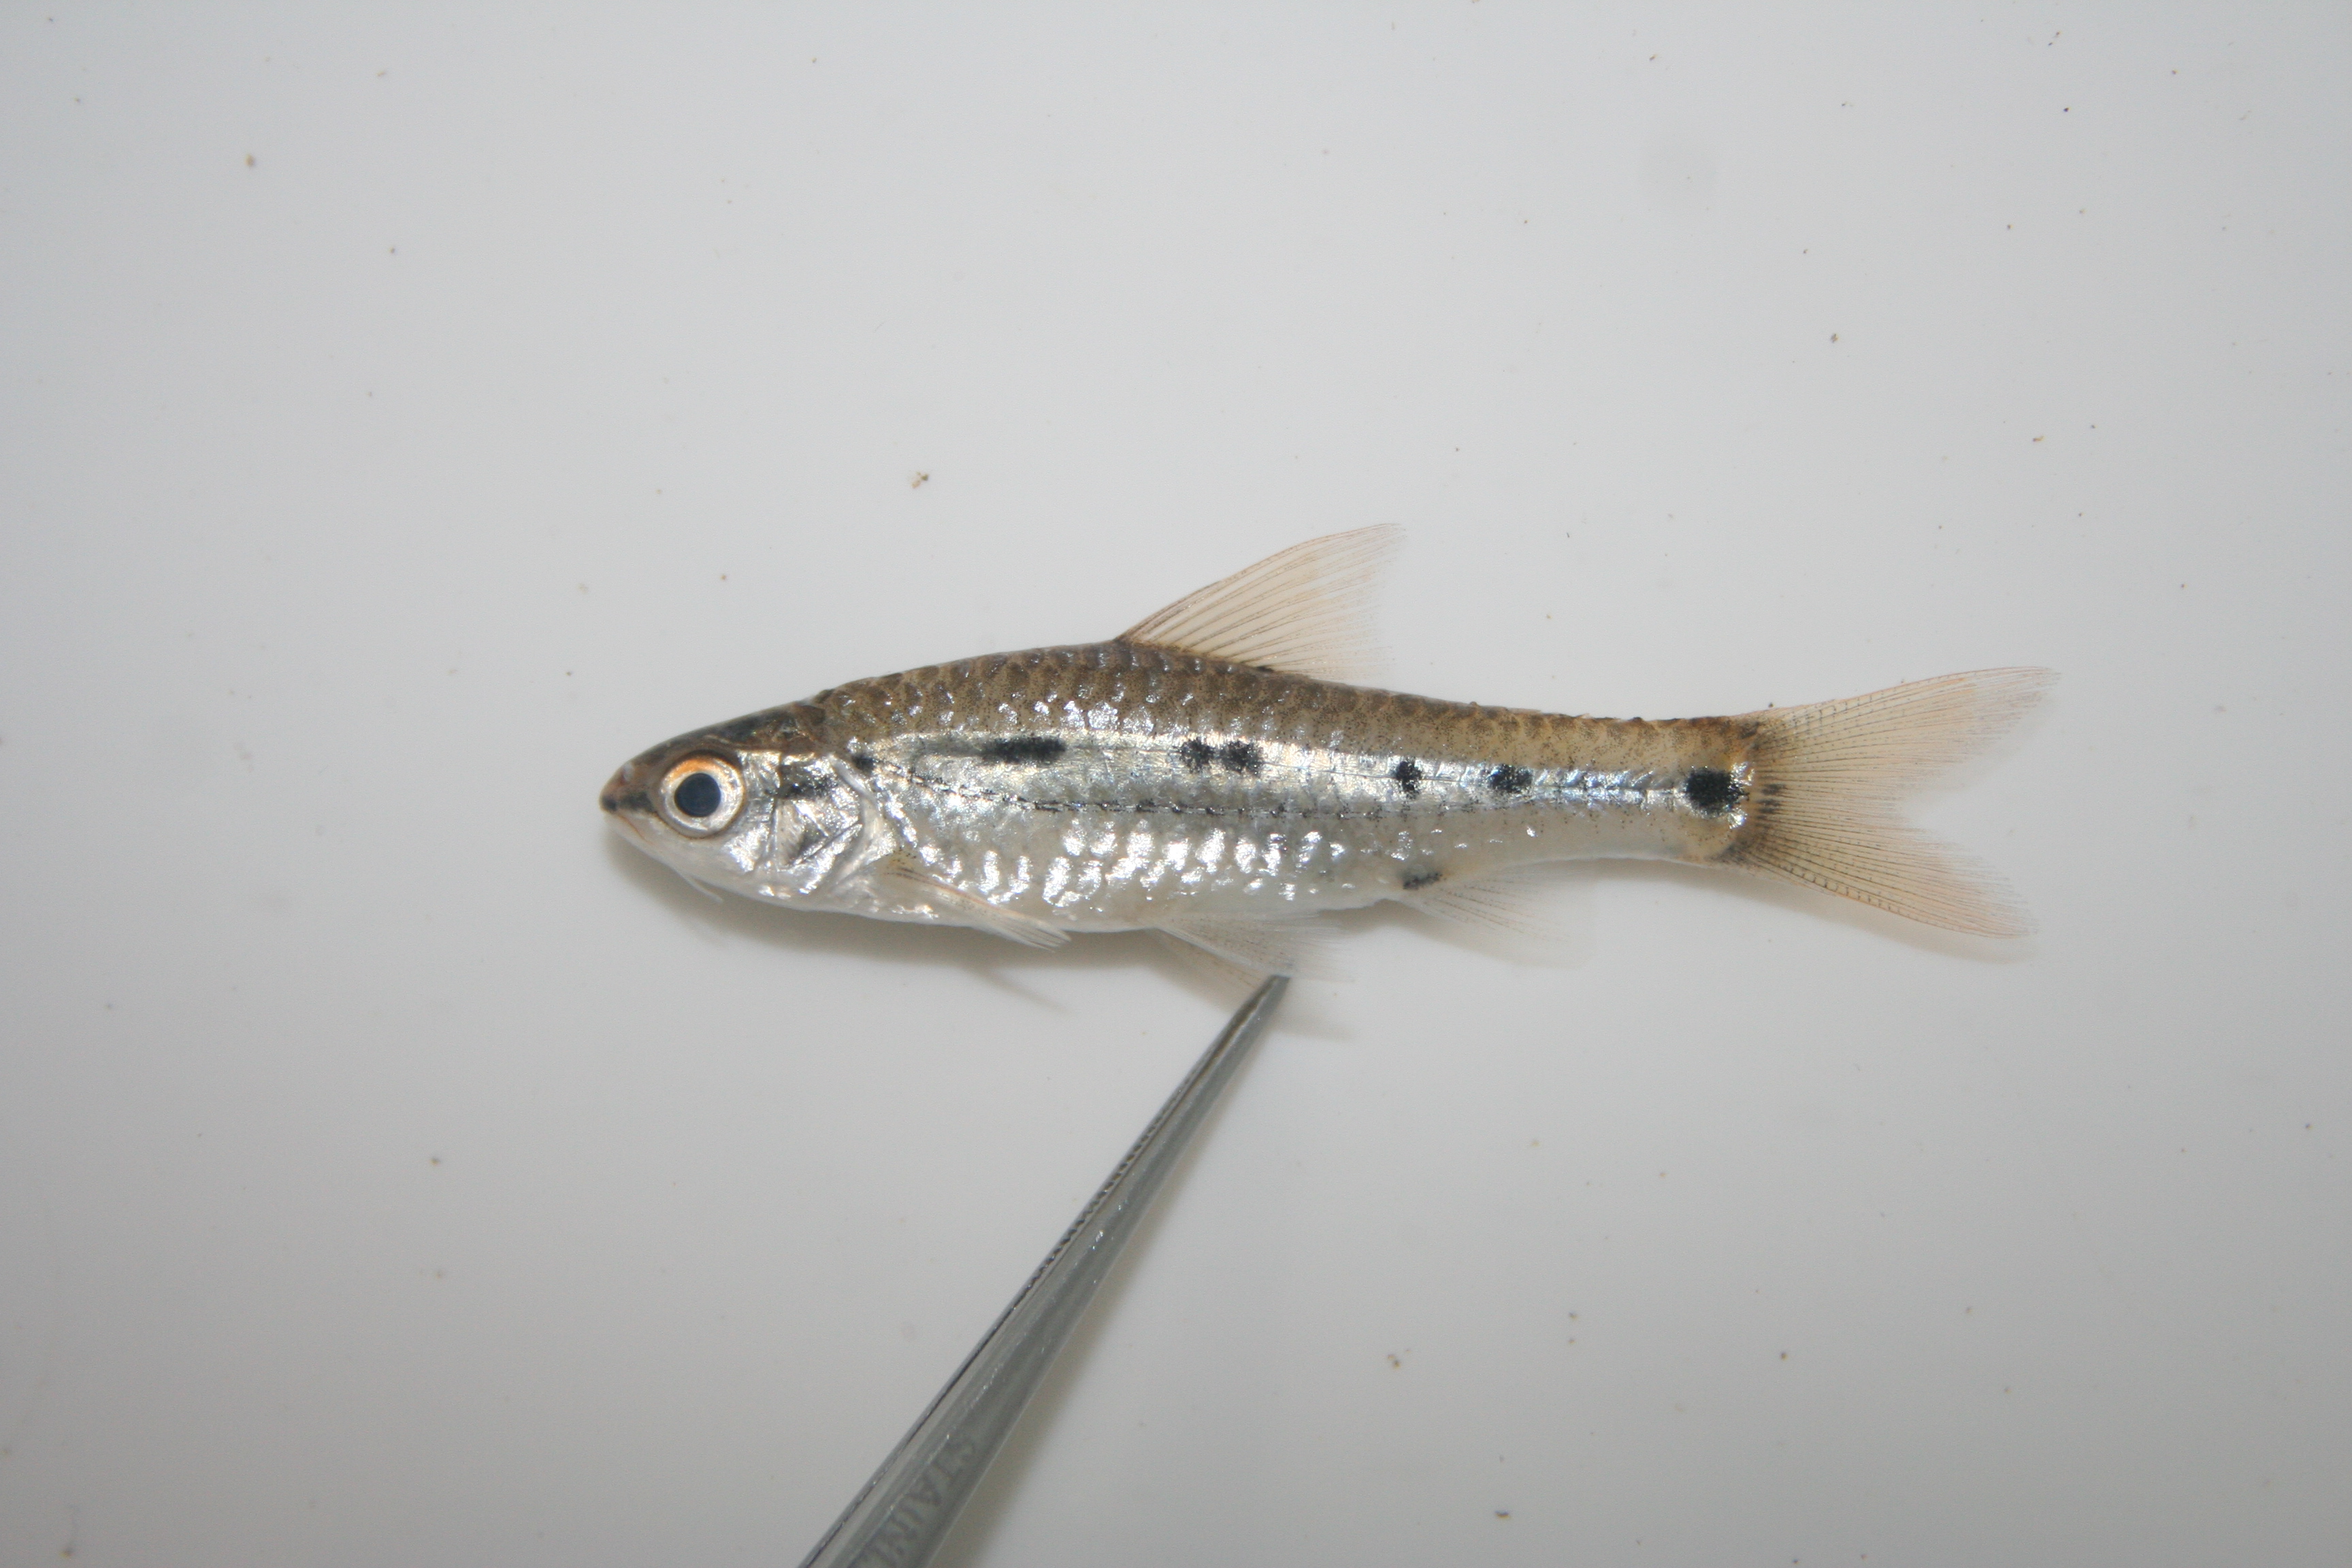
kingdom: Animalia
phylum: Chordata
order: Cypriniformes
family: Cyprinidae
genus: Enteromius
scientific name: Enteromius greenwoodi
